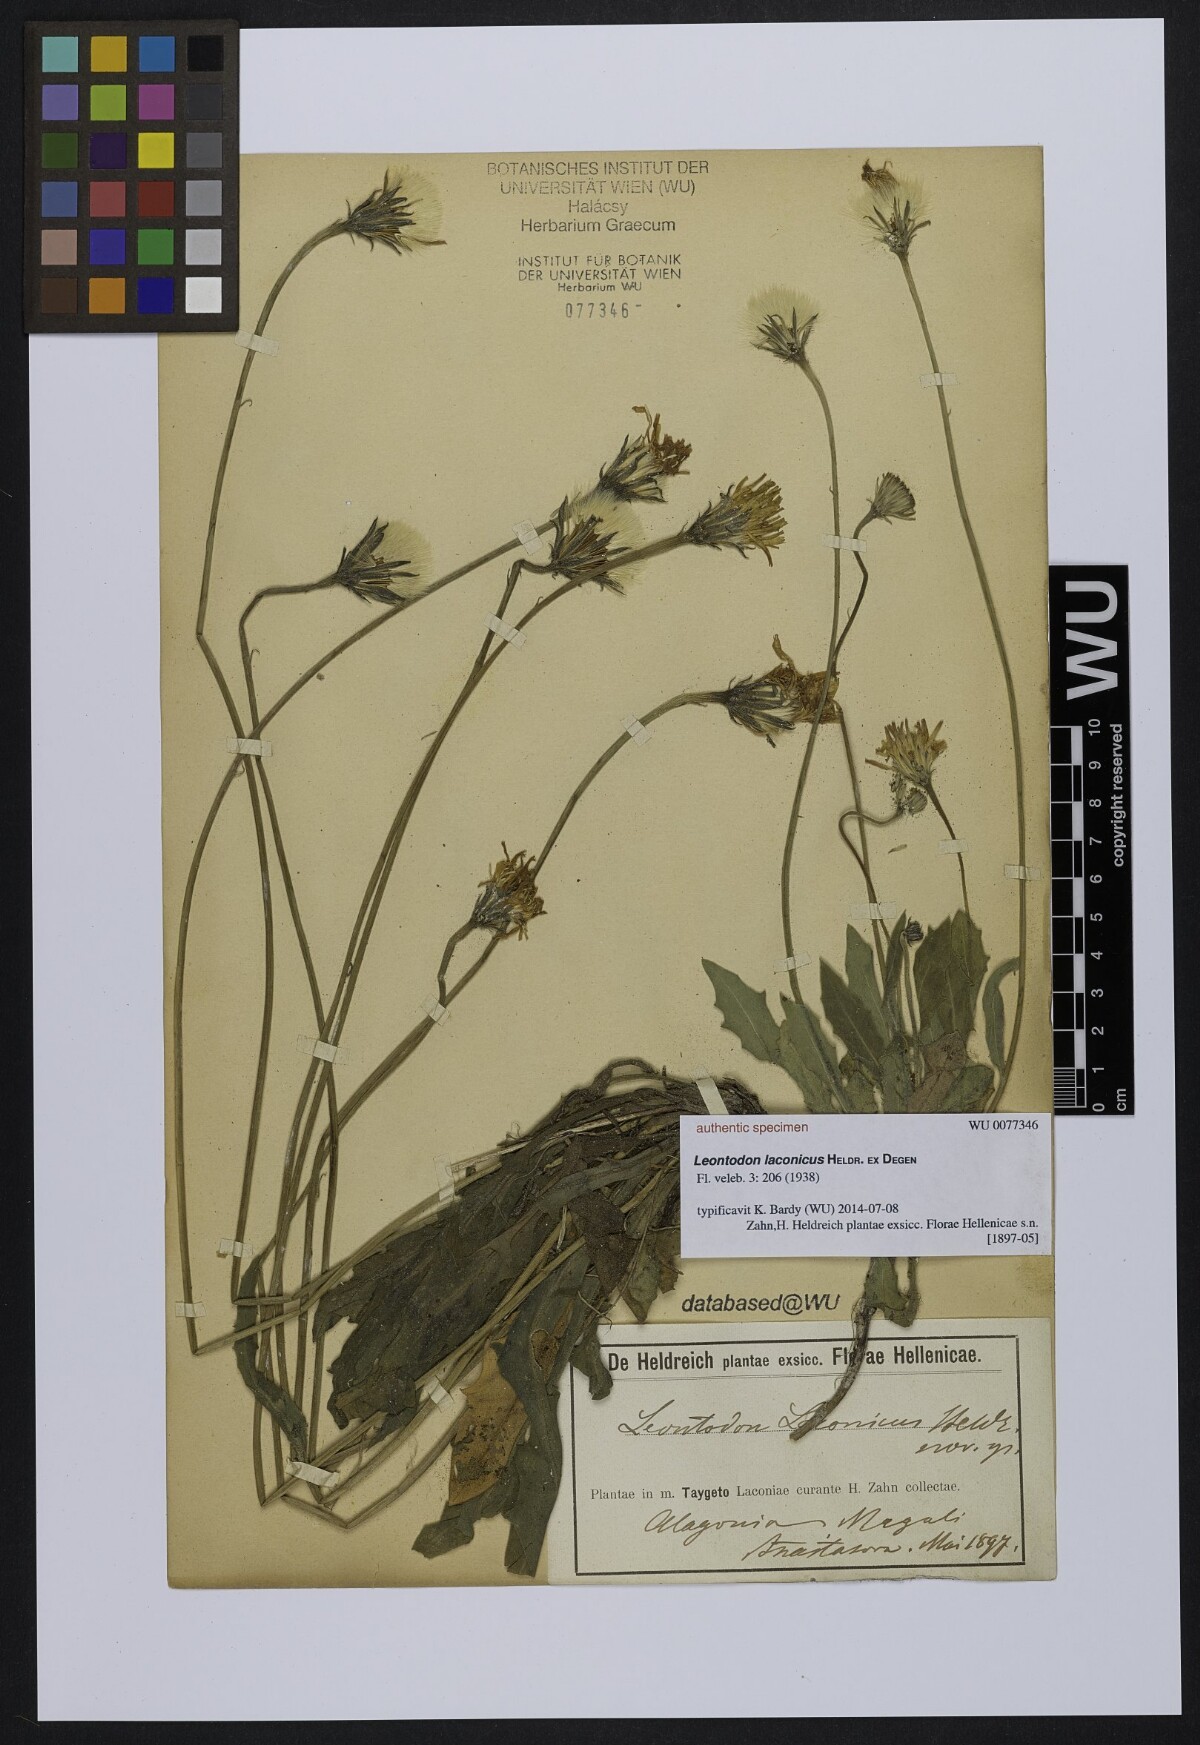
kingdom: Plantae
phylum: Tracheophyta
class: Magnoliopsida
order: Asterales
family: Asteraceae
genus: Leontodon
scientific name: Leontodon laconicus
